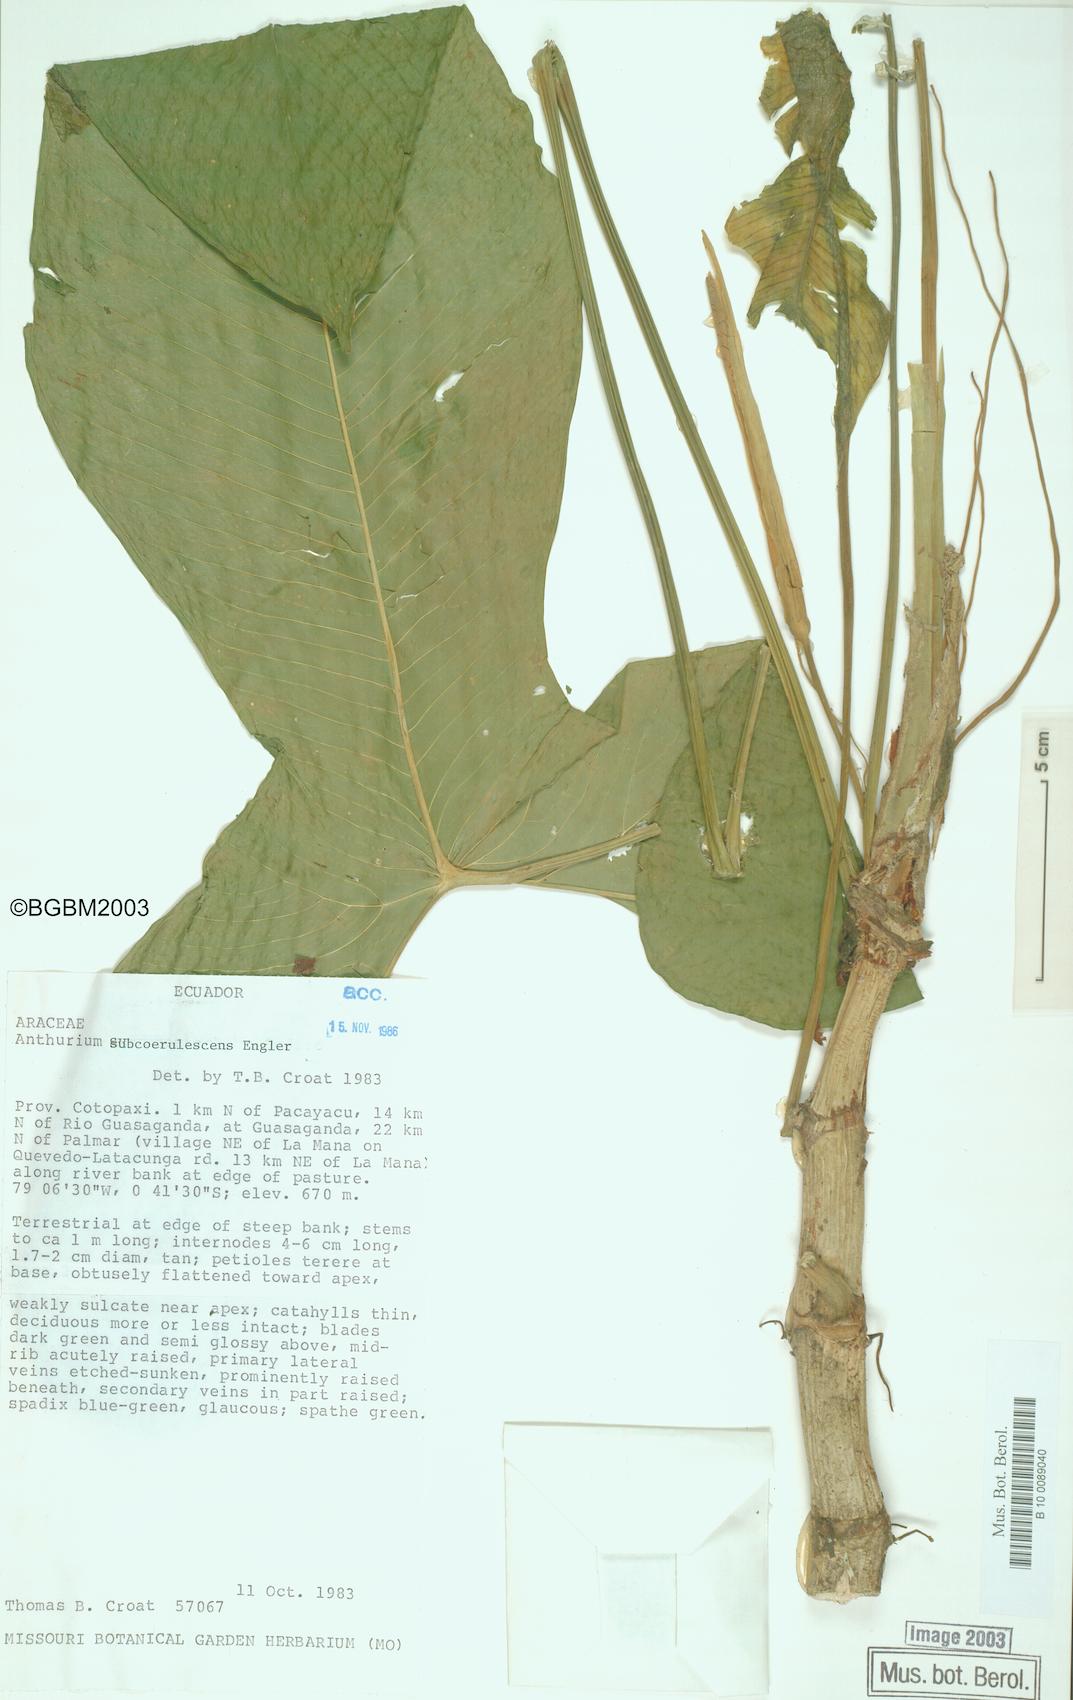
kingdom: Plantae
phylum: Tracheophyta
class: Liliopsida
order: Alismatales
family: Araceae
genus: Anthurium
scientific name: Anthurium subcoerulescens
